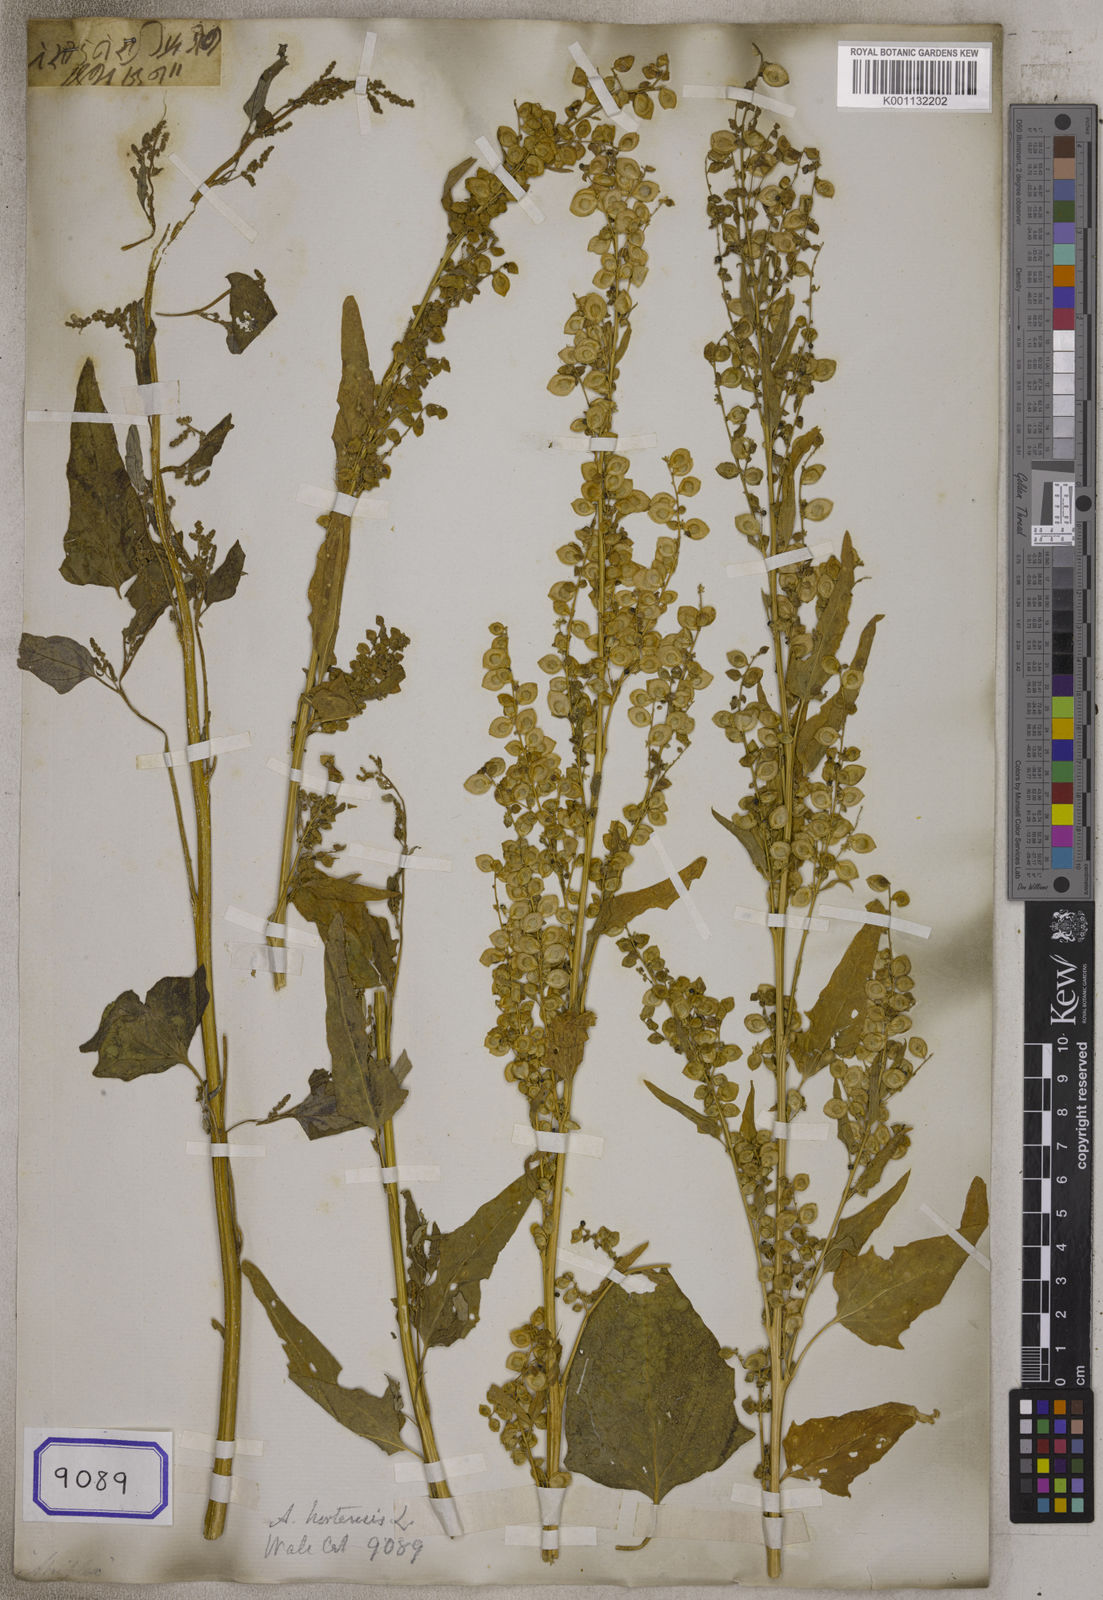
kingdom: Plantae
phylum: Tracheophyta
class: Magnoliopsida
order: Caryophyllales
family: Amaranthaceae
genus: Atriplex
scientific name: Atriplex hortensis
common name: Garden orache
